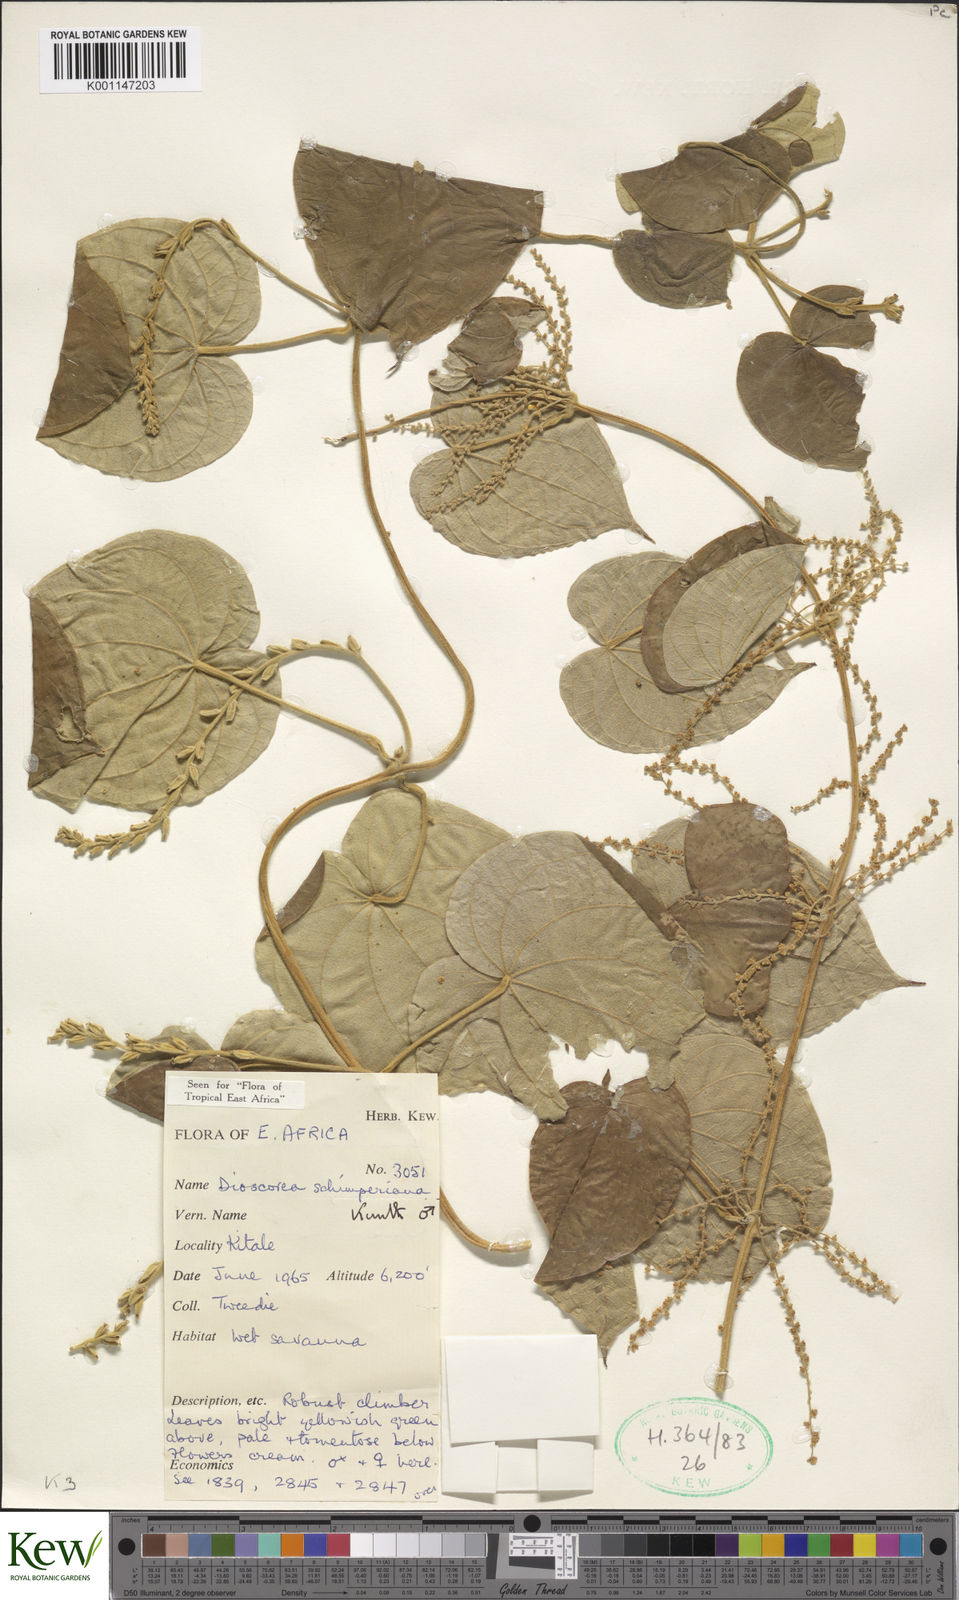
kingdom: Plantae
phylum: Tracheophyta
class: Liliopsida
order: Dioscoreales
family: Dioscoreaceae
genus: Dioscorea
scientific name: Dioscorea schimperiana
